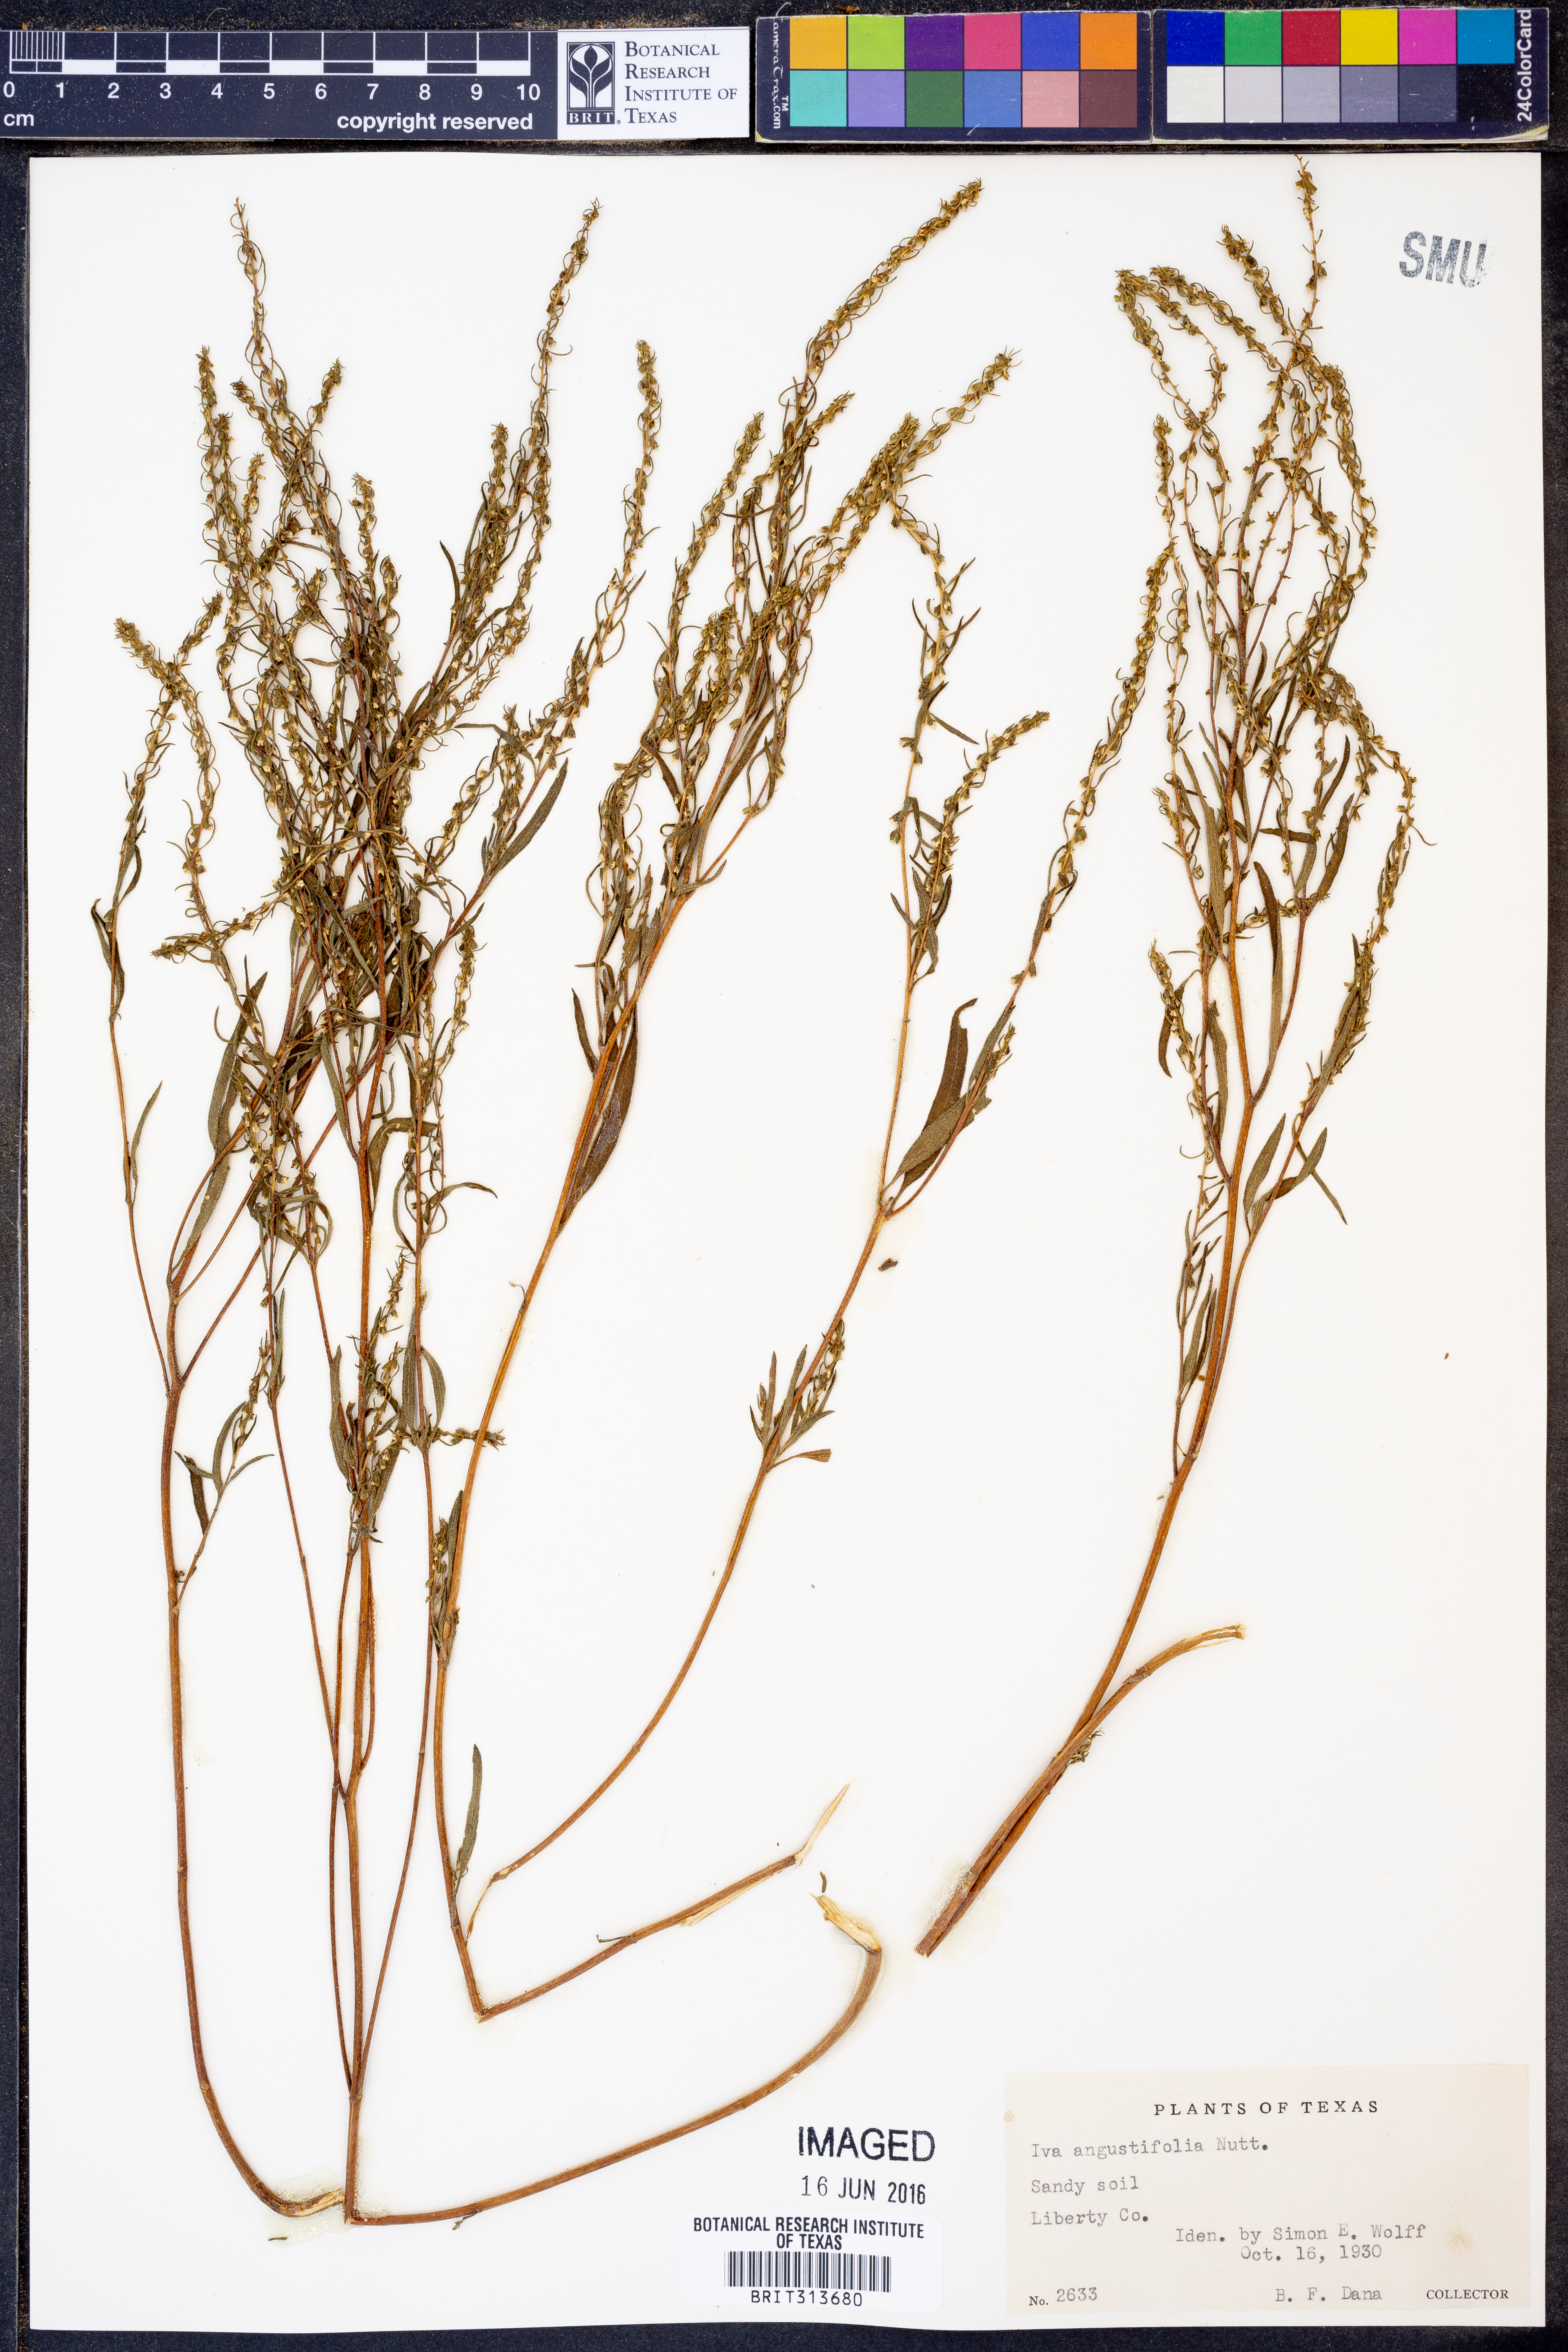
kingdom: Plantae
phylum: Tracheophyta
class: Magnoliopsida
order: Asterales
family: Asteraceae
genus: Iva
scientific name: Iva asperifolia
